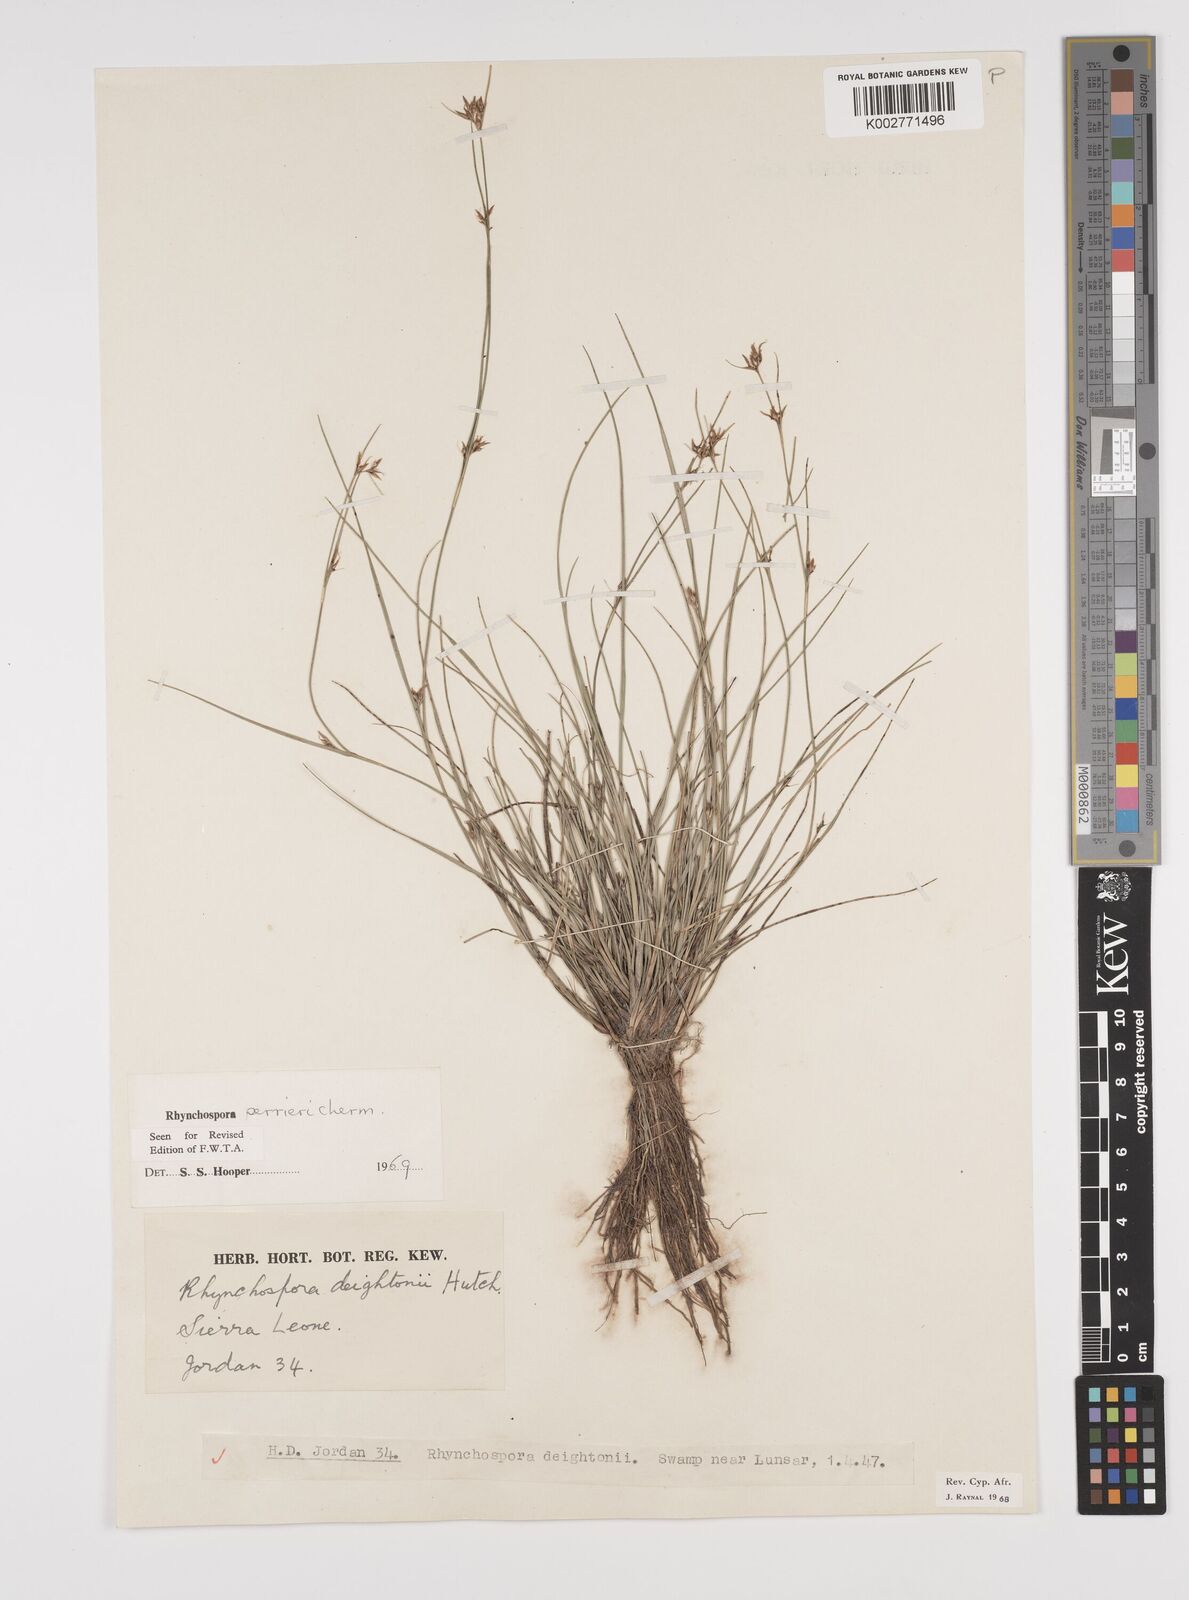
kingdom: Plantae
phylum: Tracheophyta
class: Liliopsida
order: Poales
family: Cyperaceae
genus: Rhynchospora
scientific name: Rhynchospora perrieri
